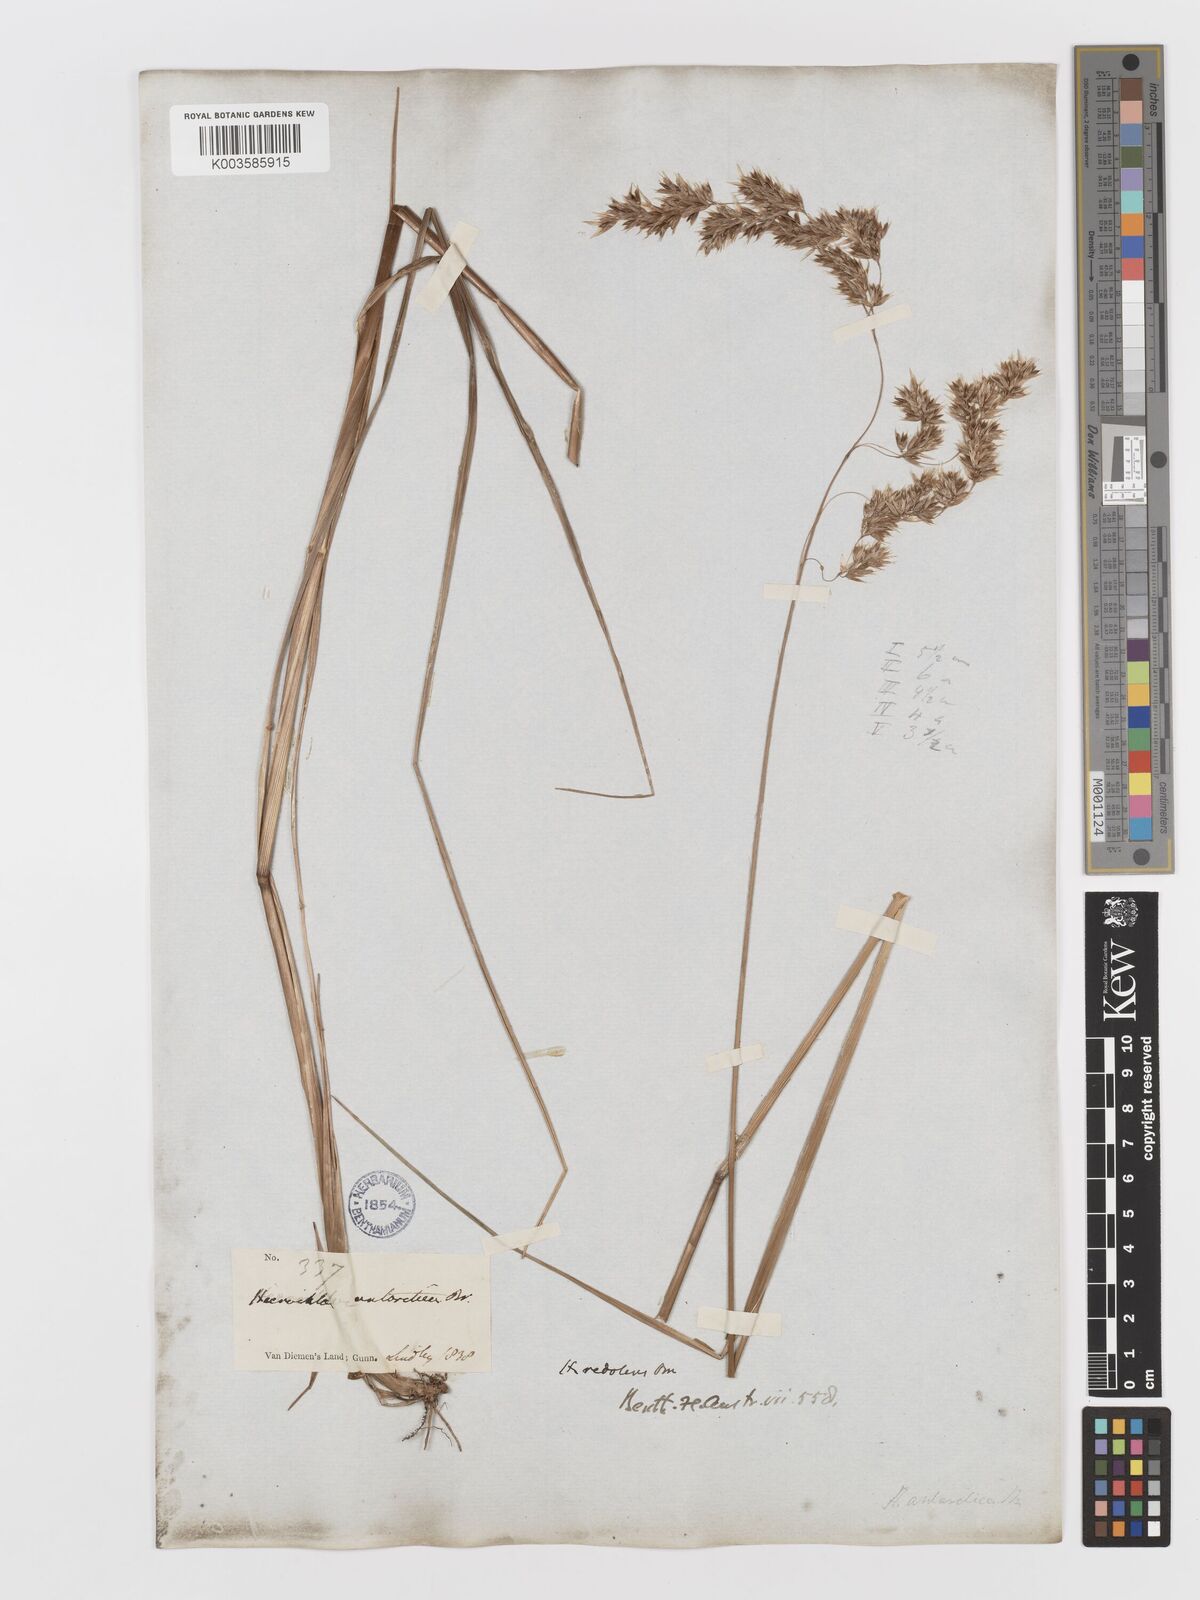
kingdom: Plantae
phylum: Tracheophyta
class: Liliopsida
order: Poales
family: Poaceae
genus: Anthoxanthum
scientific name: Anthoxanthum redolens
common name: Sweet holy grass
